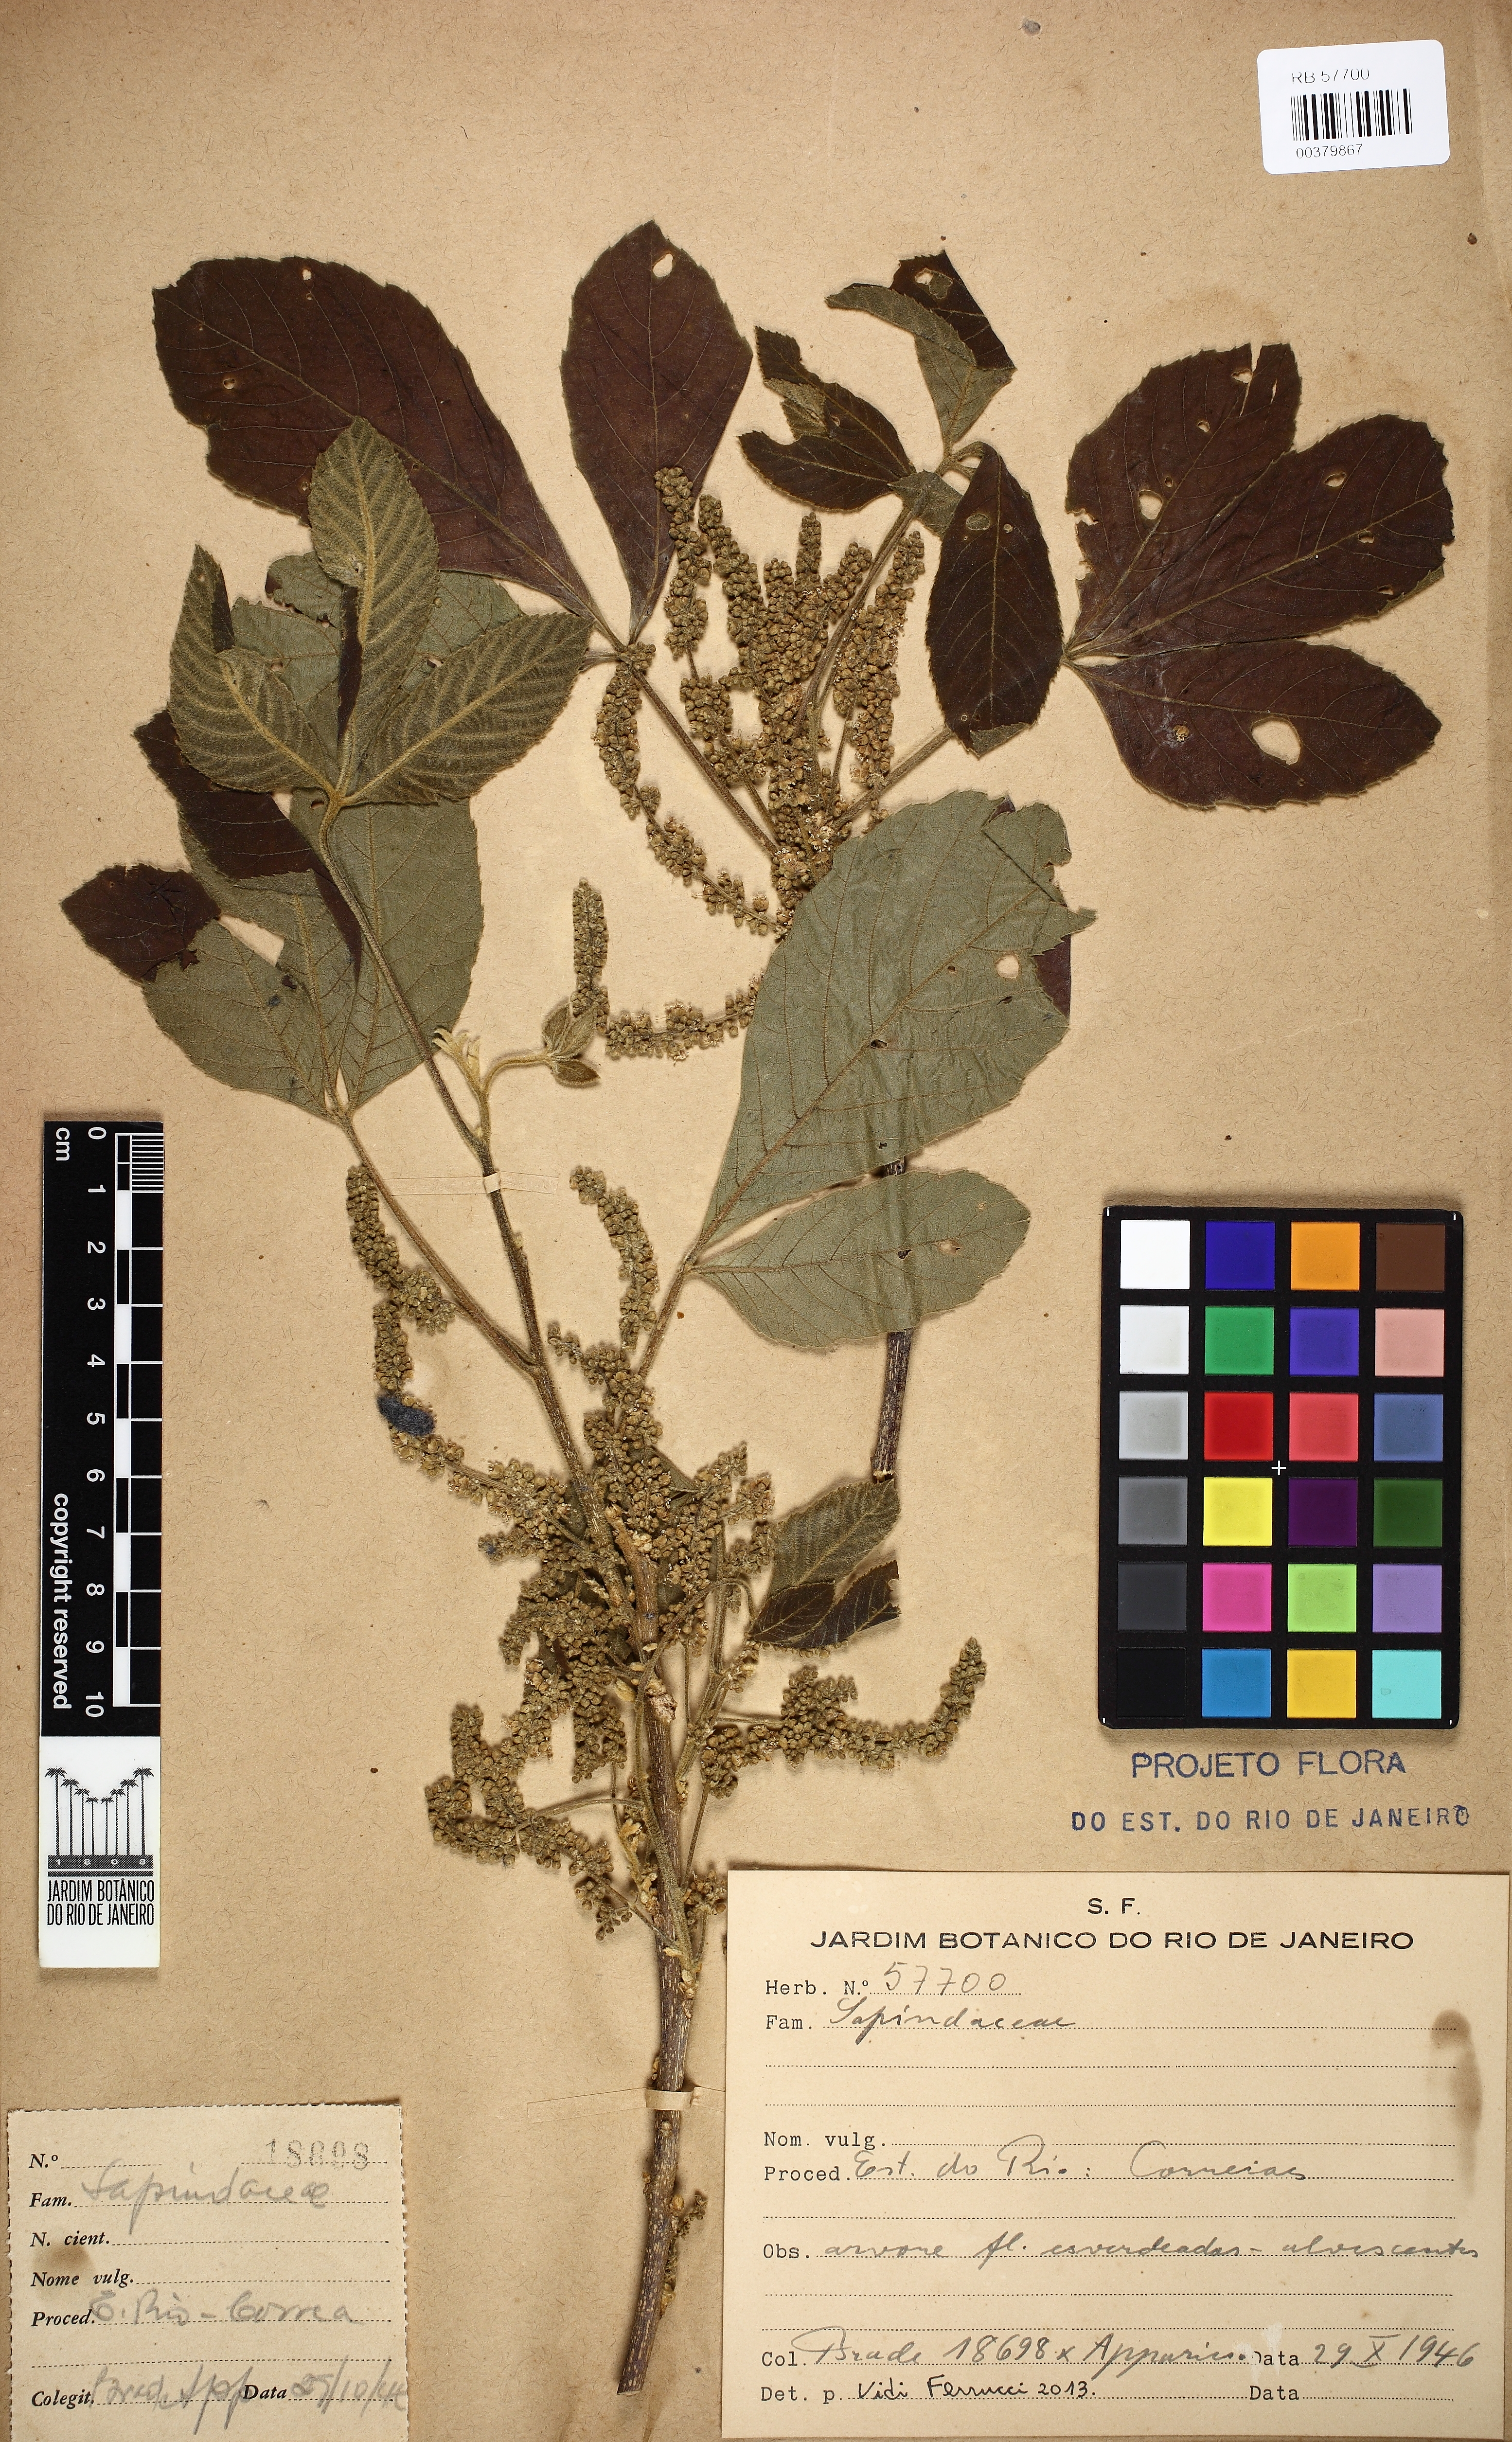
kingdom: Plantae
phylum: Tracheophyta
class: Magnoliopsida
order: Sapindales
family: Sapindaceae
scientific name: Sapindaceae
